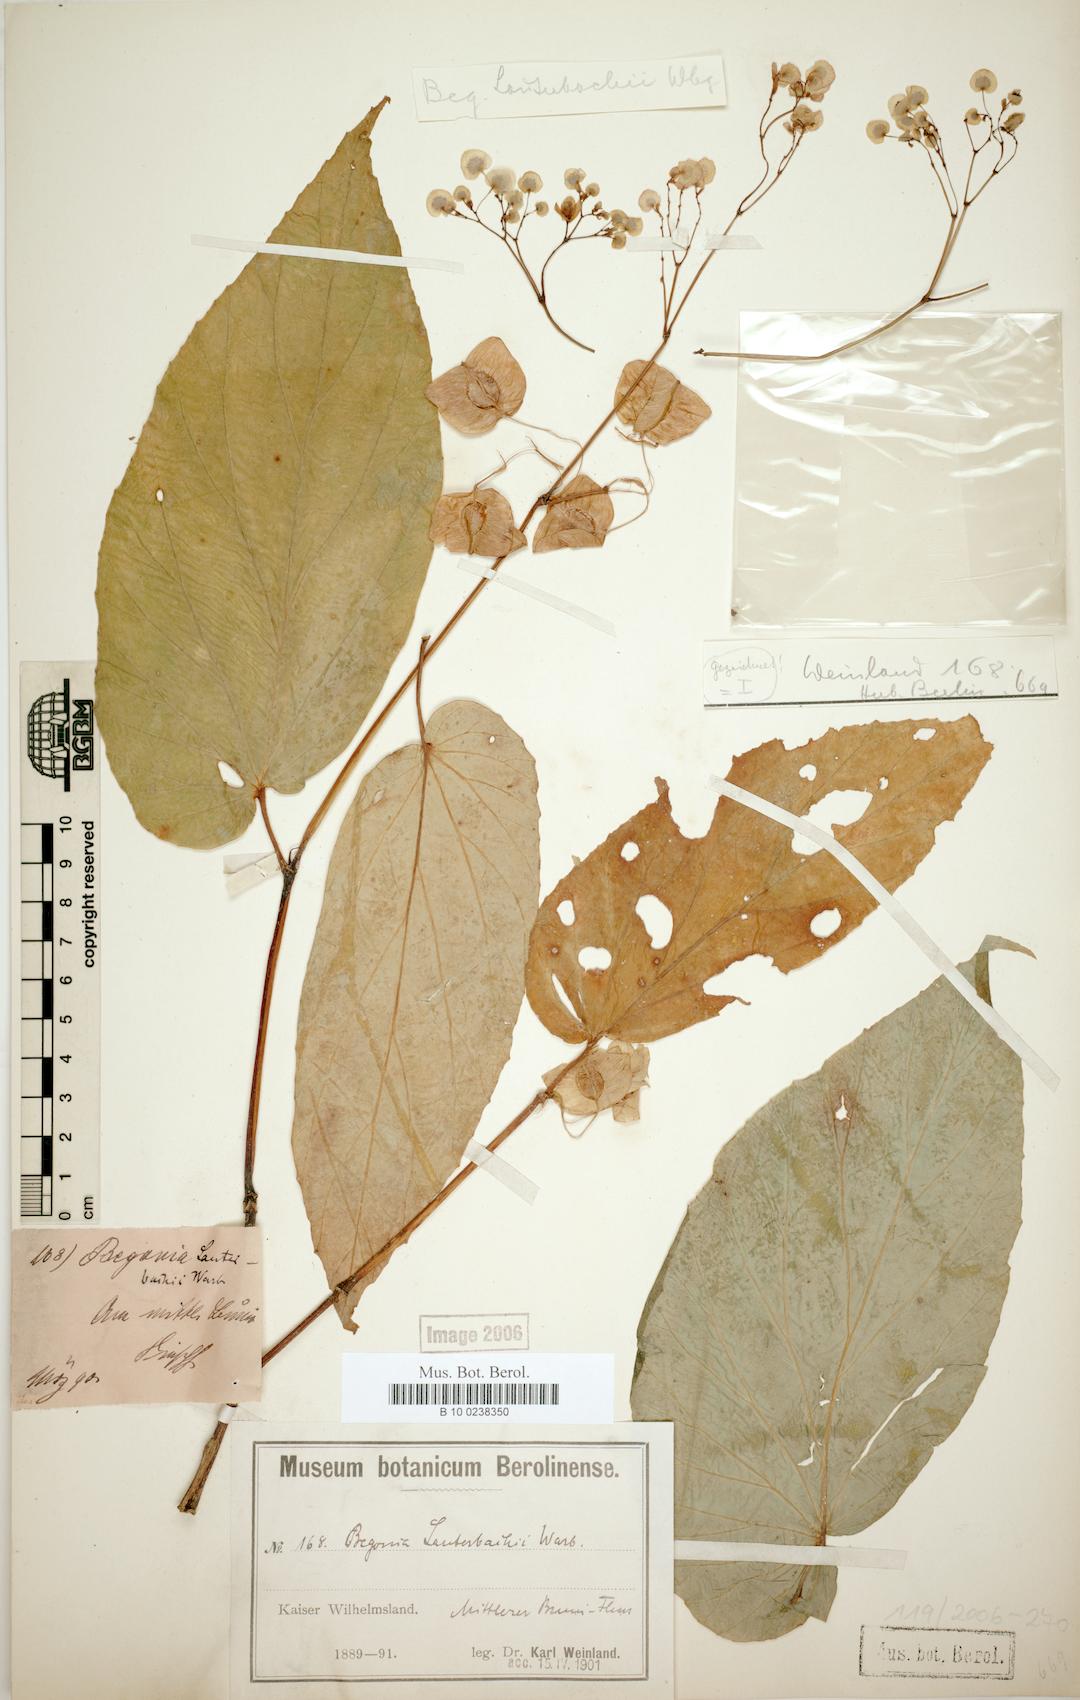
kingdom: Plantae
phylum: Tracheophyta
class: Magnoliopsida
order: Cucurbitales
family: Begoniaceae
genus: Begonia
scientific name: Begonia lauterbachii
